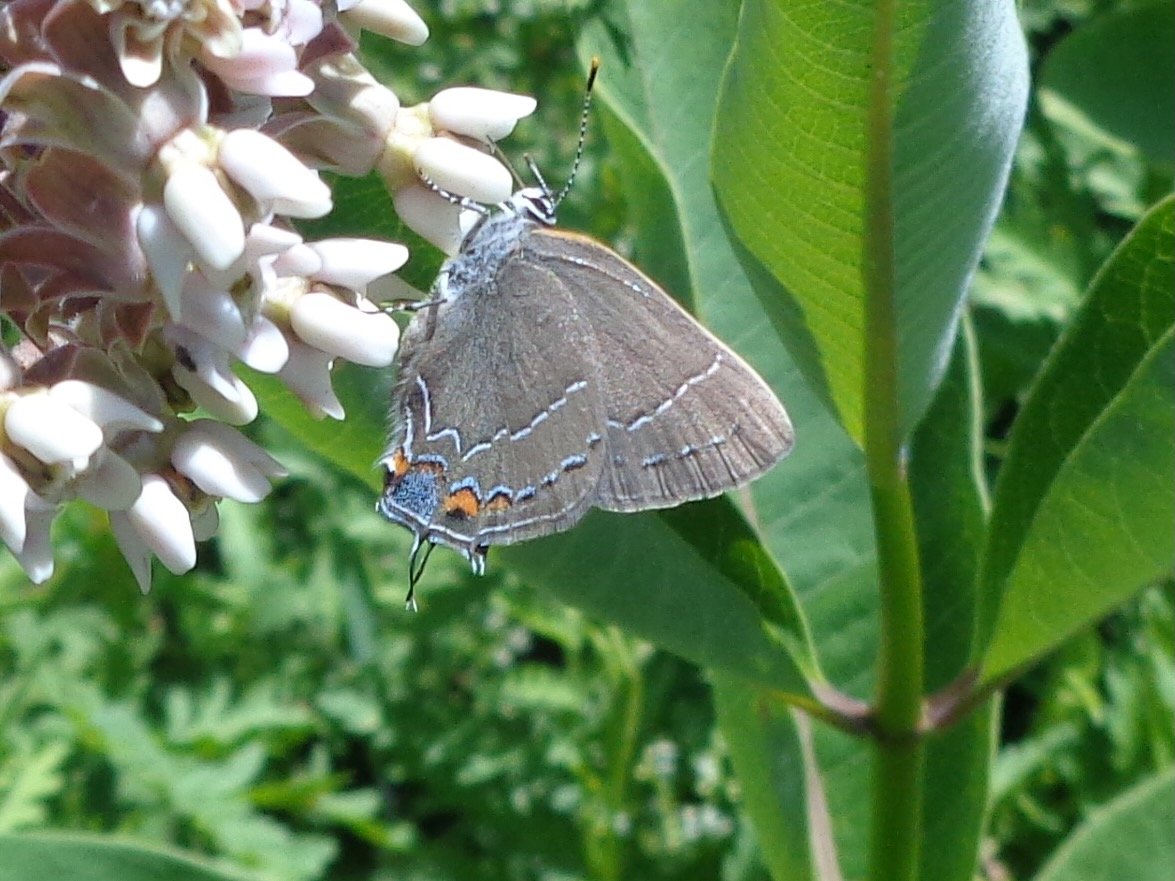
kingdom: Animalia
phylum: Arthropoda
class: Insecta
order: Lepidoptera
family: Lycaenidae
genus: Fixsenia
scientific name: Fixsenia favonius
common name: Oak Hairstreak
